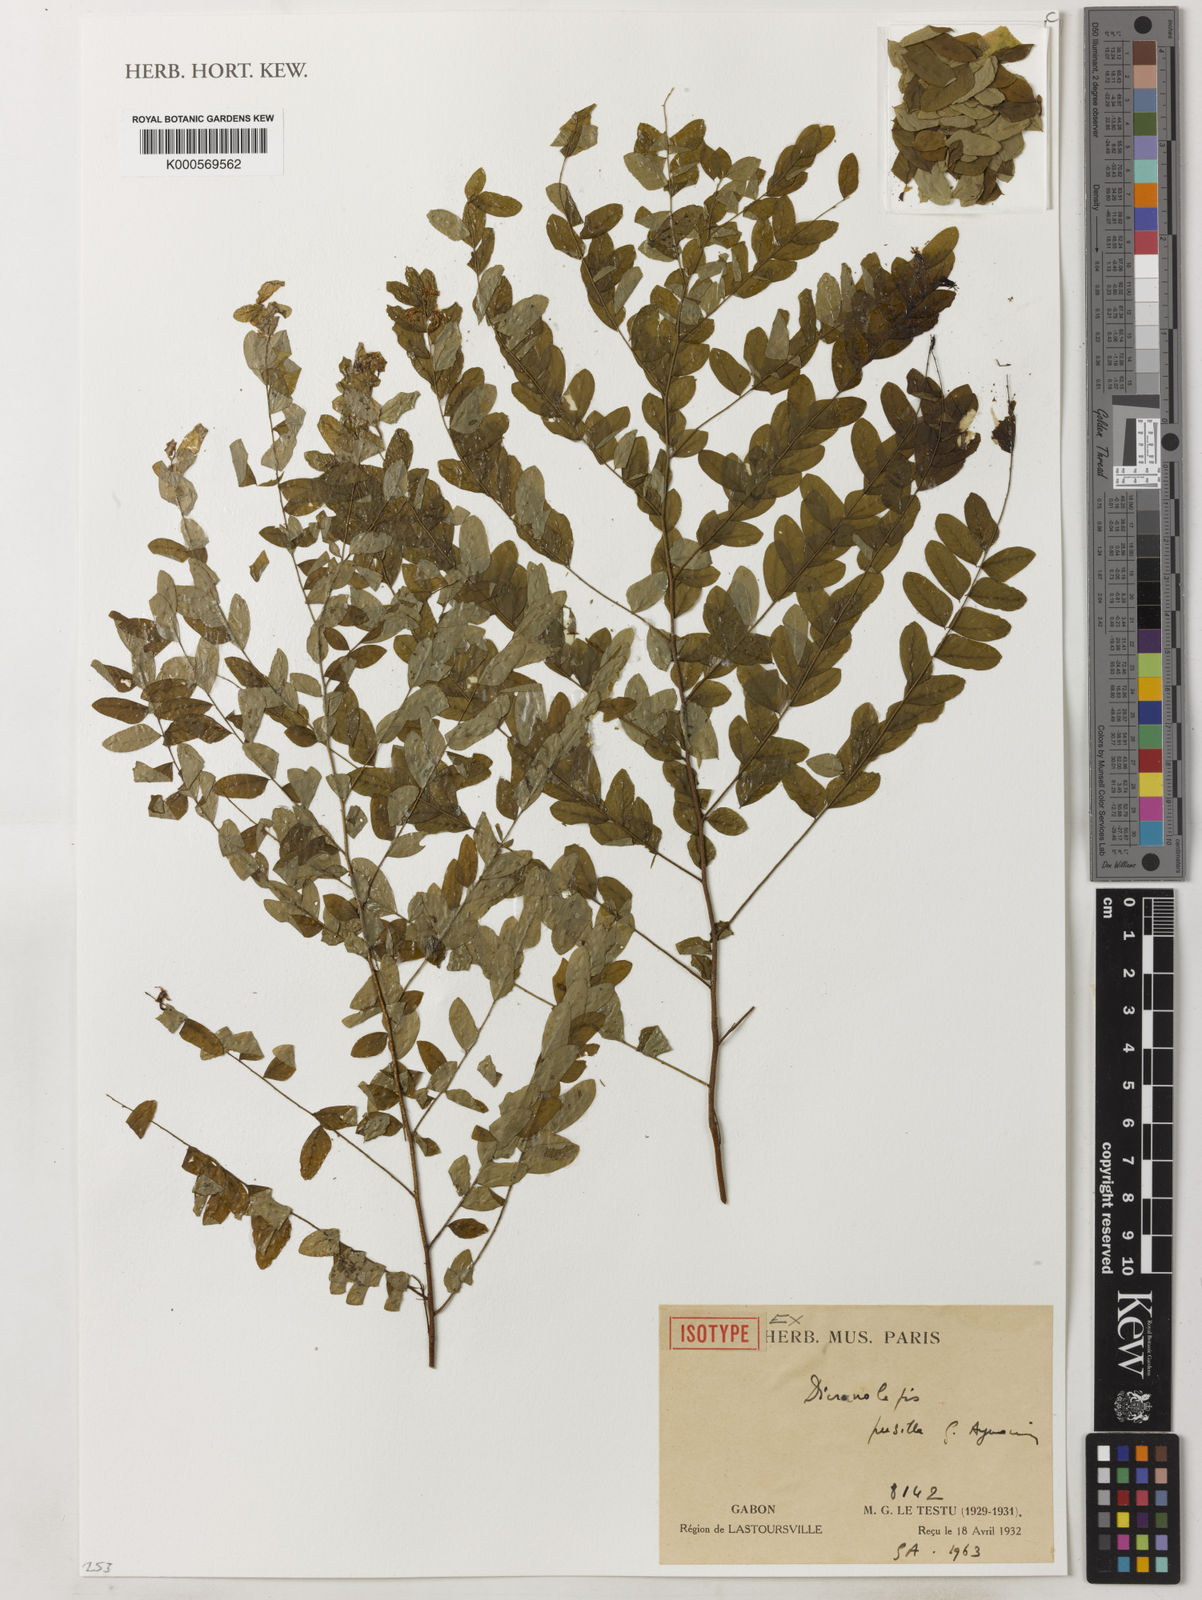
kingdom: Plantae
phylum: Tracheophyta
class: Magnoliopsida
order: Malvales
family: Thymelaeaceae
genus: Dicranolepis
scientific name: Dicranolepis pusilla
